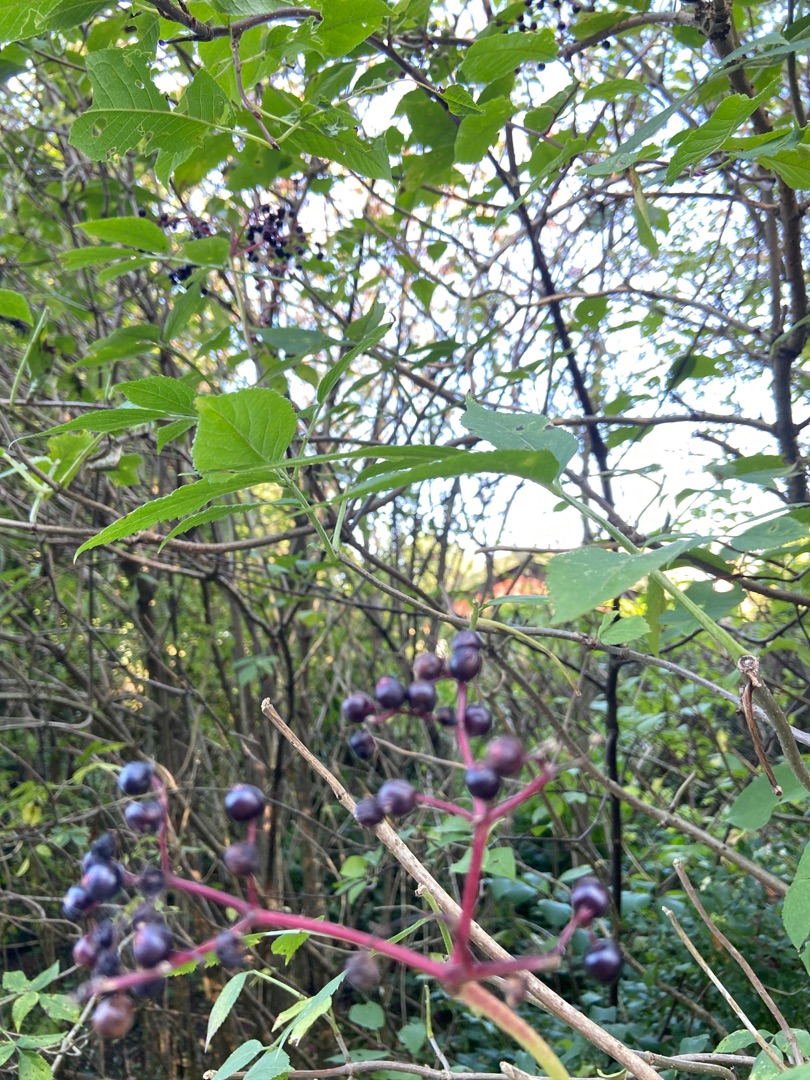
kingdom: Plantae
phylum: Tracheophyta
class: Magnoliopsida
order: Dipsacales
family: Viburnaceae
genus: Sambucus
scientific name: Sambucus nigra
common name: Almindelig hyld
